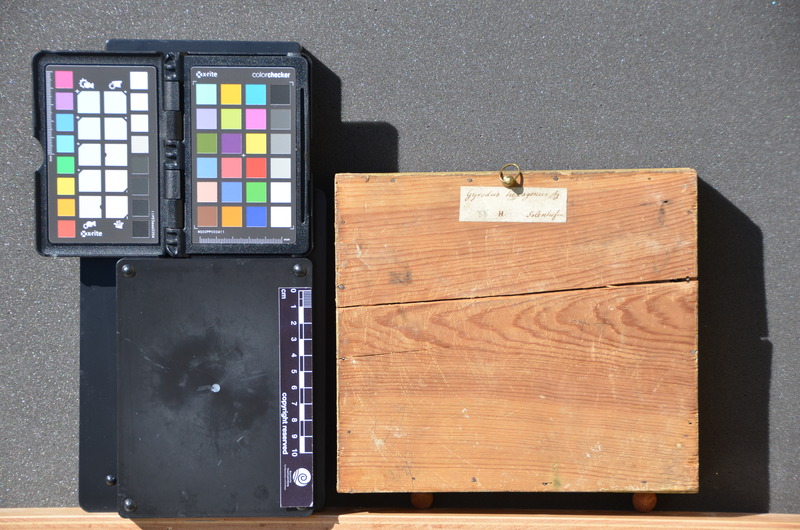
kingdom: Animalia
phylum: Chordata
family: Gyrodontidae
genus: Gyrodus
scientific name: Gyrodus hexagonus
